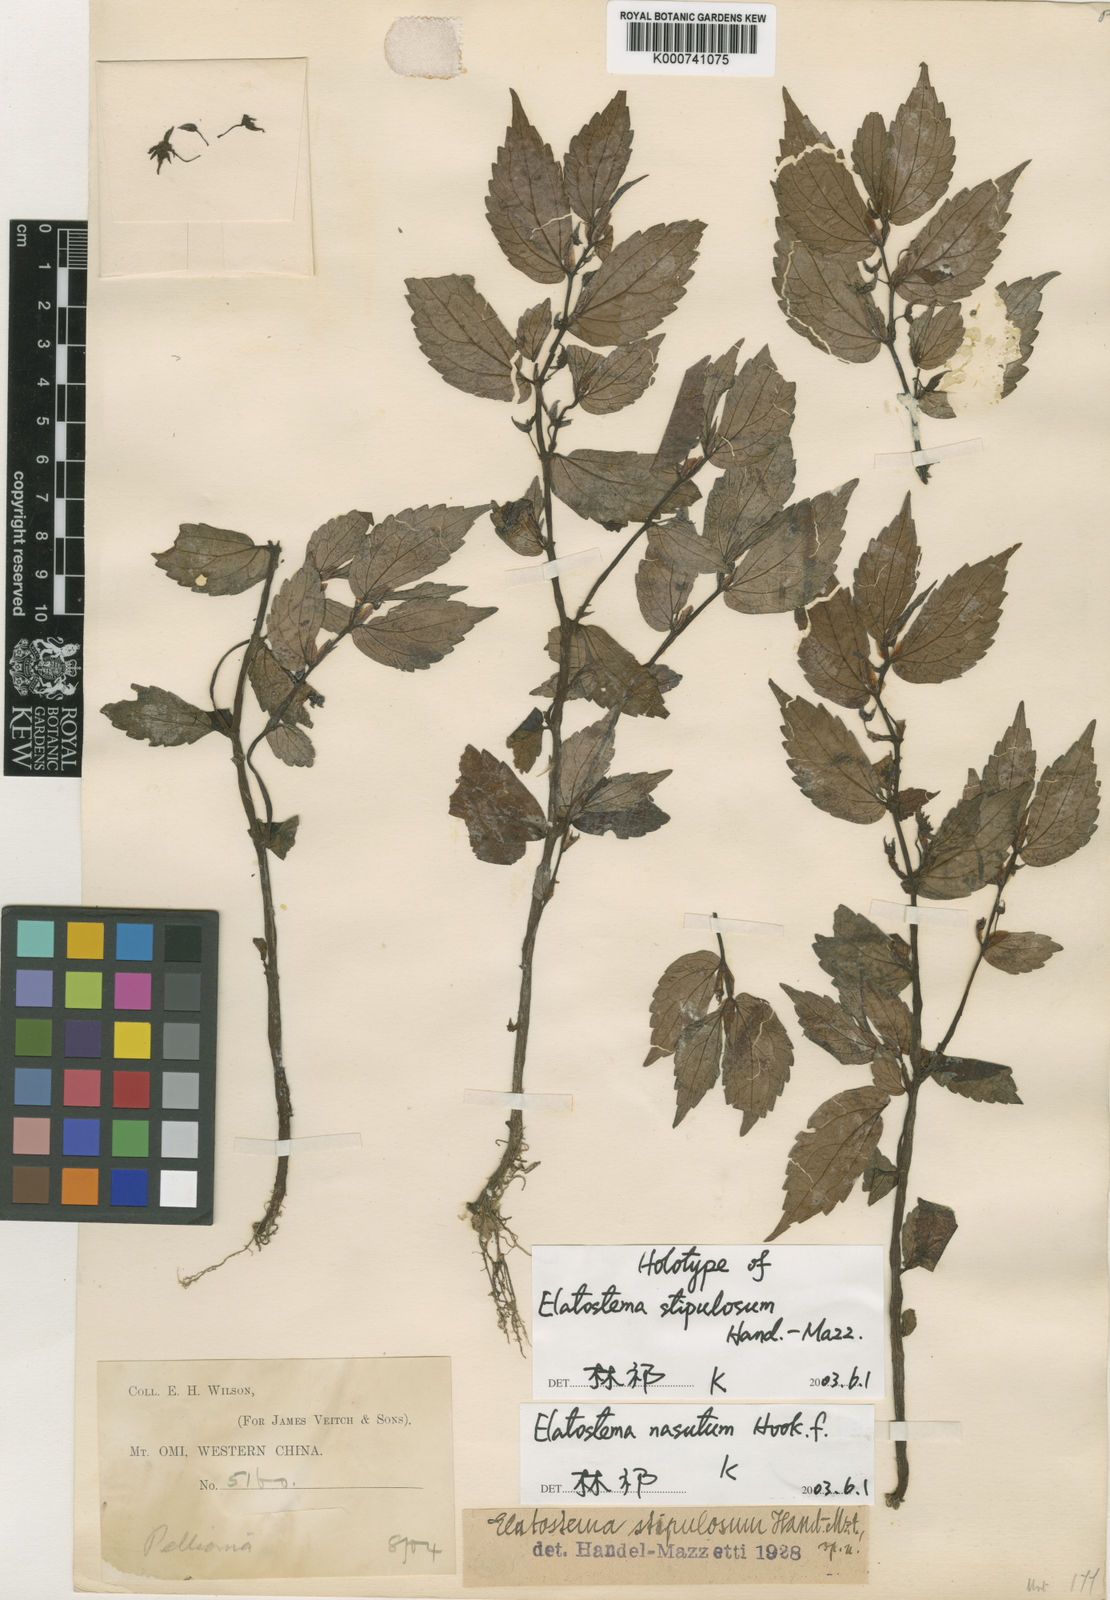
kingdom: Plantae
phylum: Tracheophyta
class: Magnoliopsida
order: Rosales
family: Urticaceae
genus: Elatostema
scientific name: Elatostema nasutum
